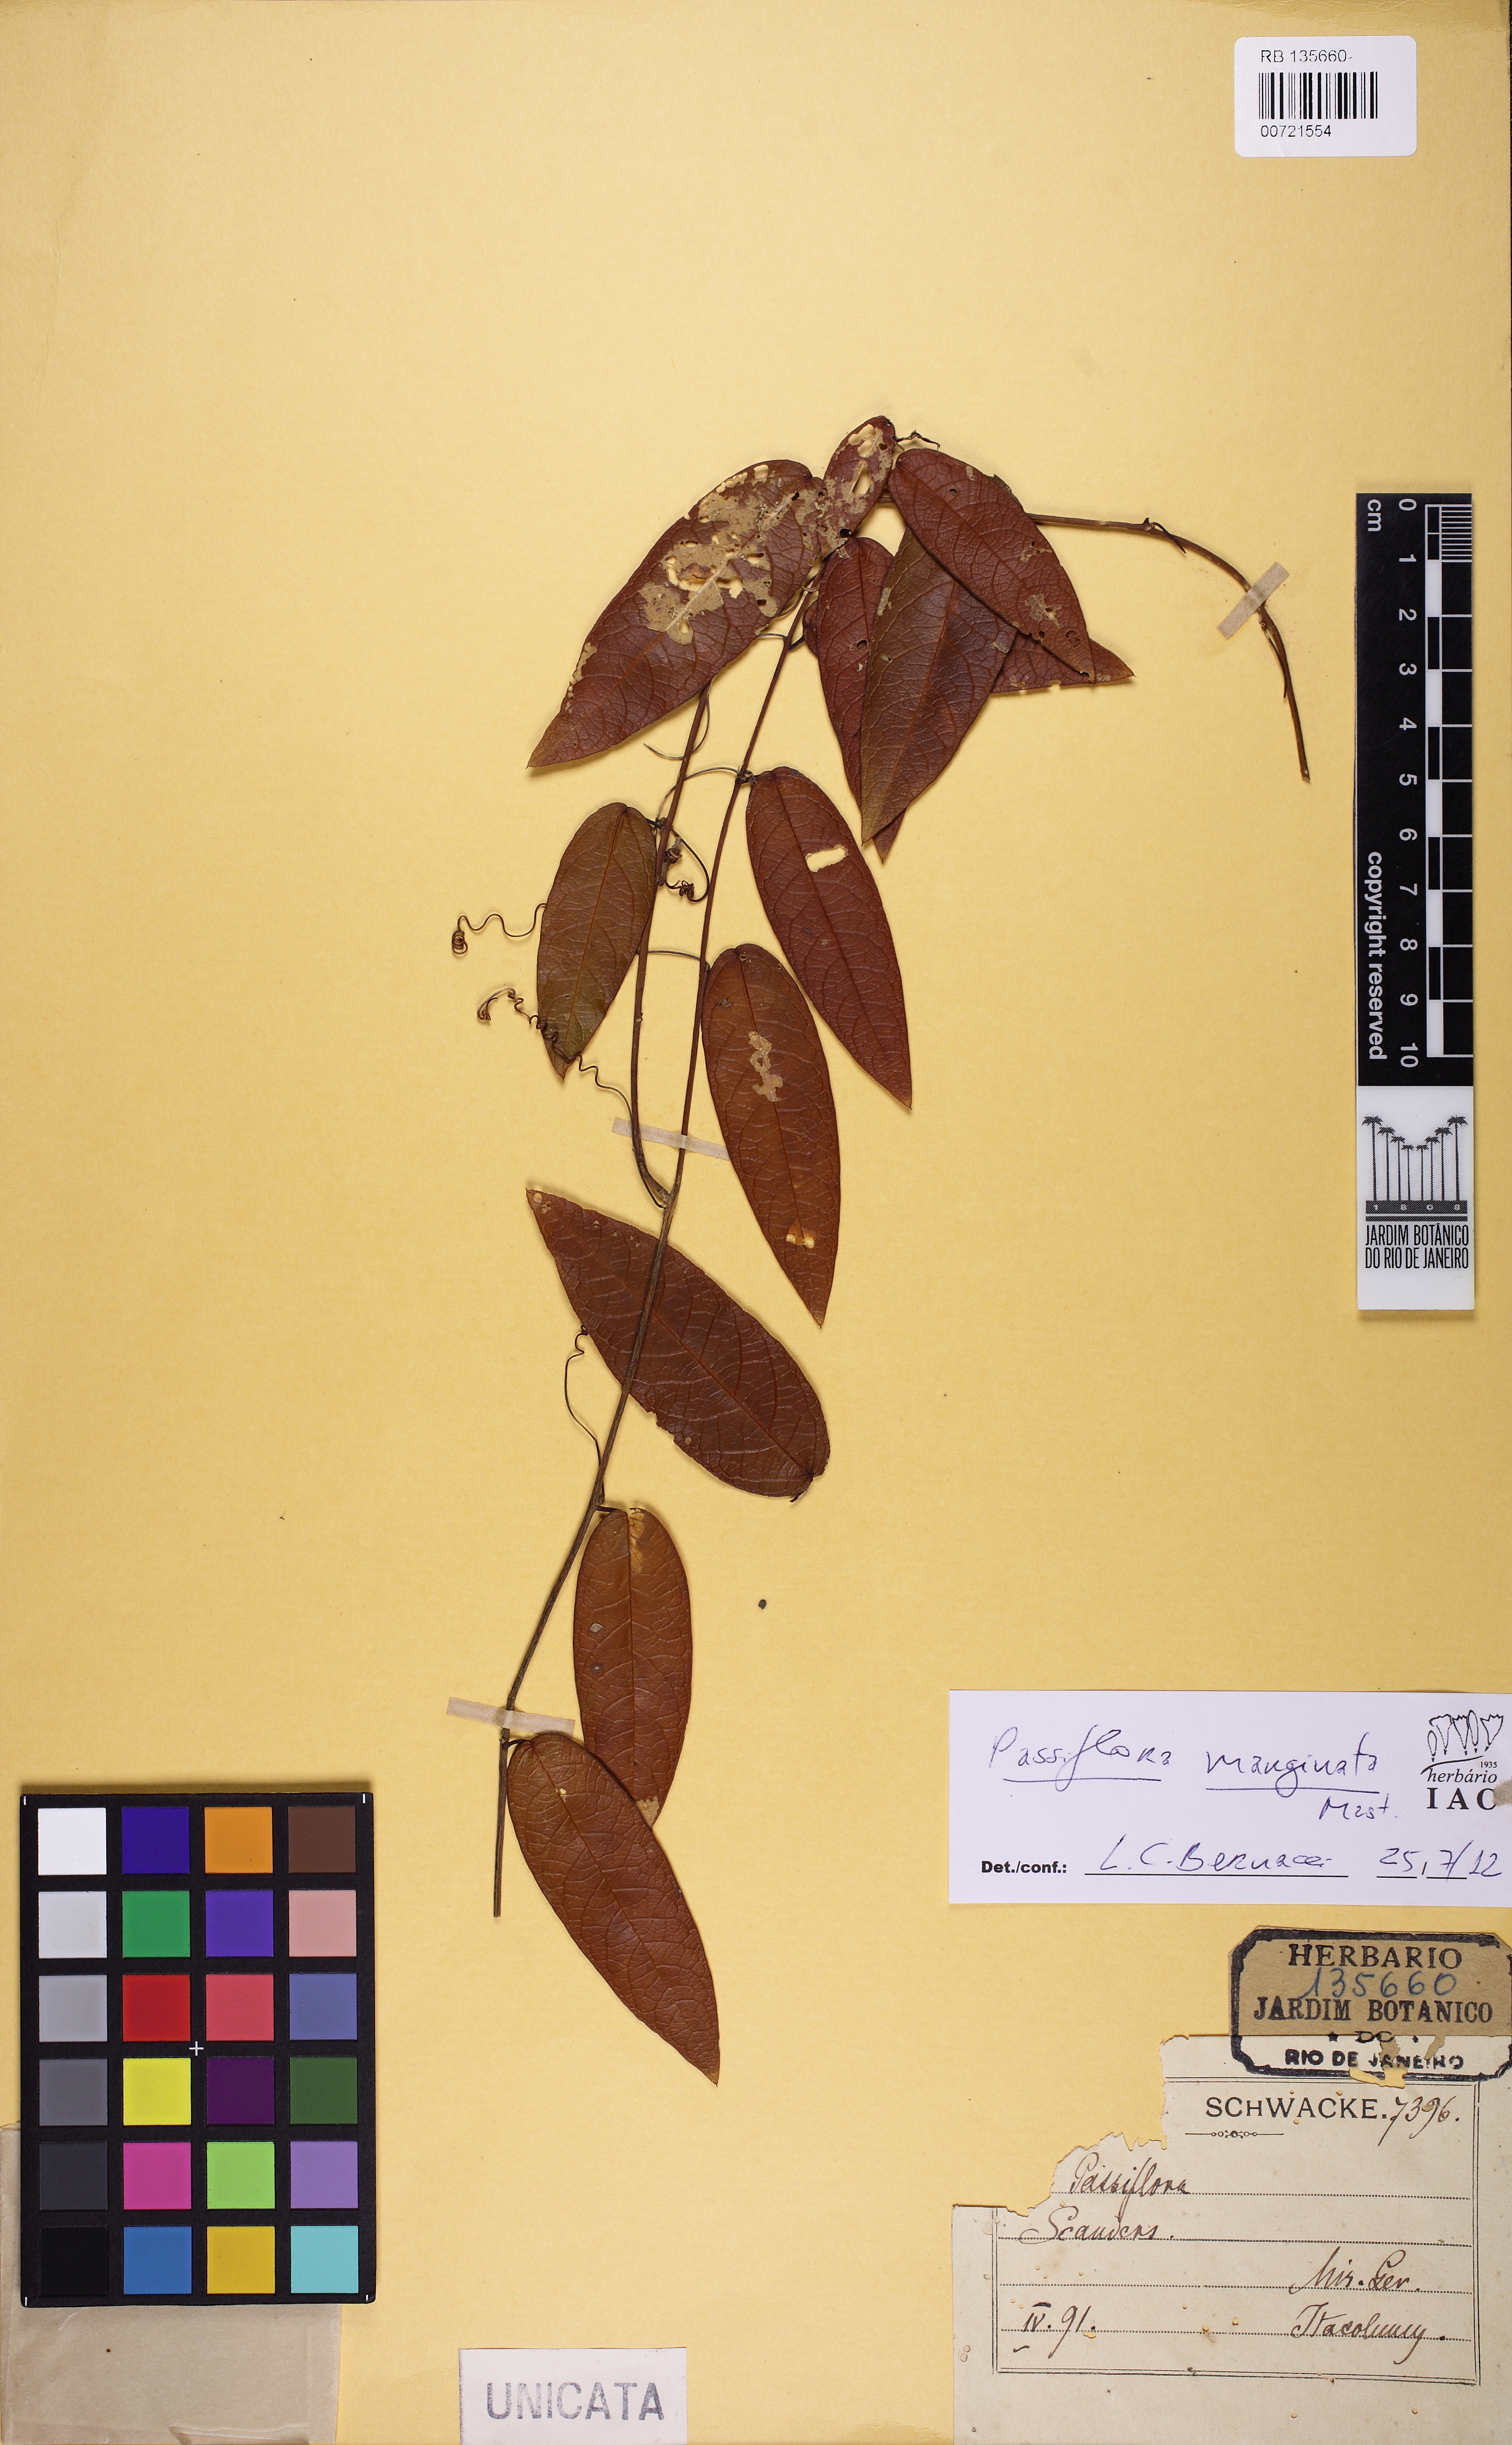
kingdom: Plantae
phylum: Tracheophyta
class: Magnoliopsida
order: Malpighiales
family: Passifloraceae
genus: Passiflora
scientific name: Passiflora marginata
